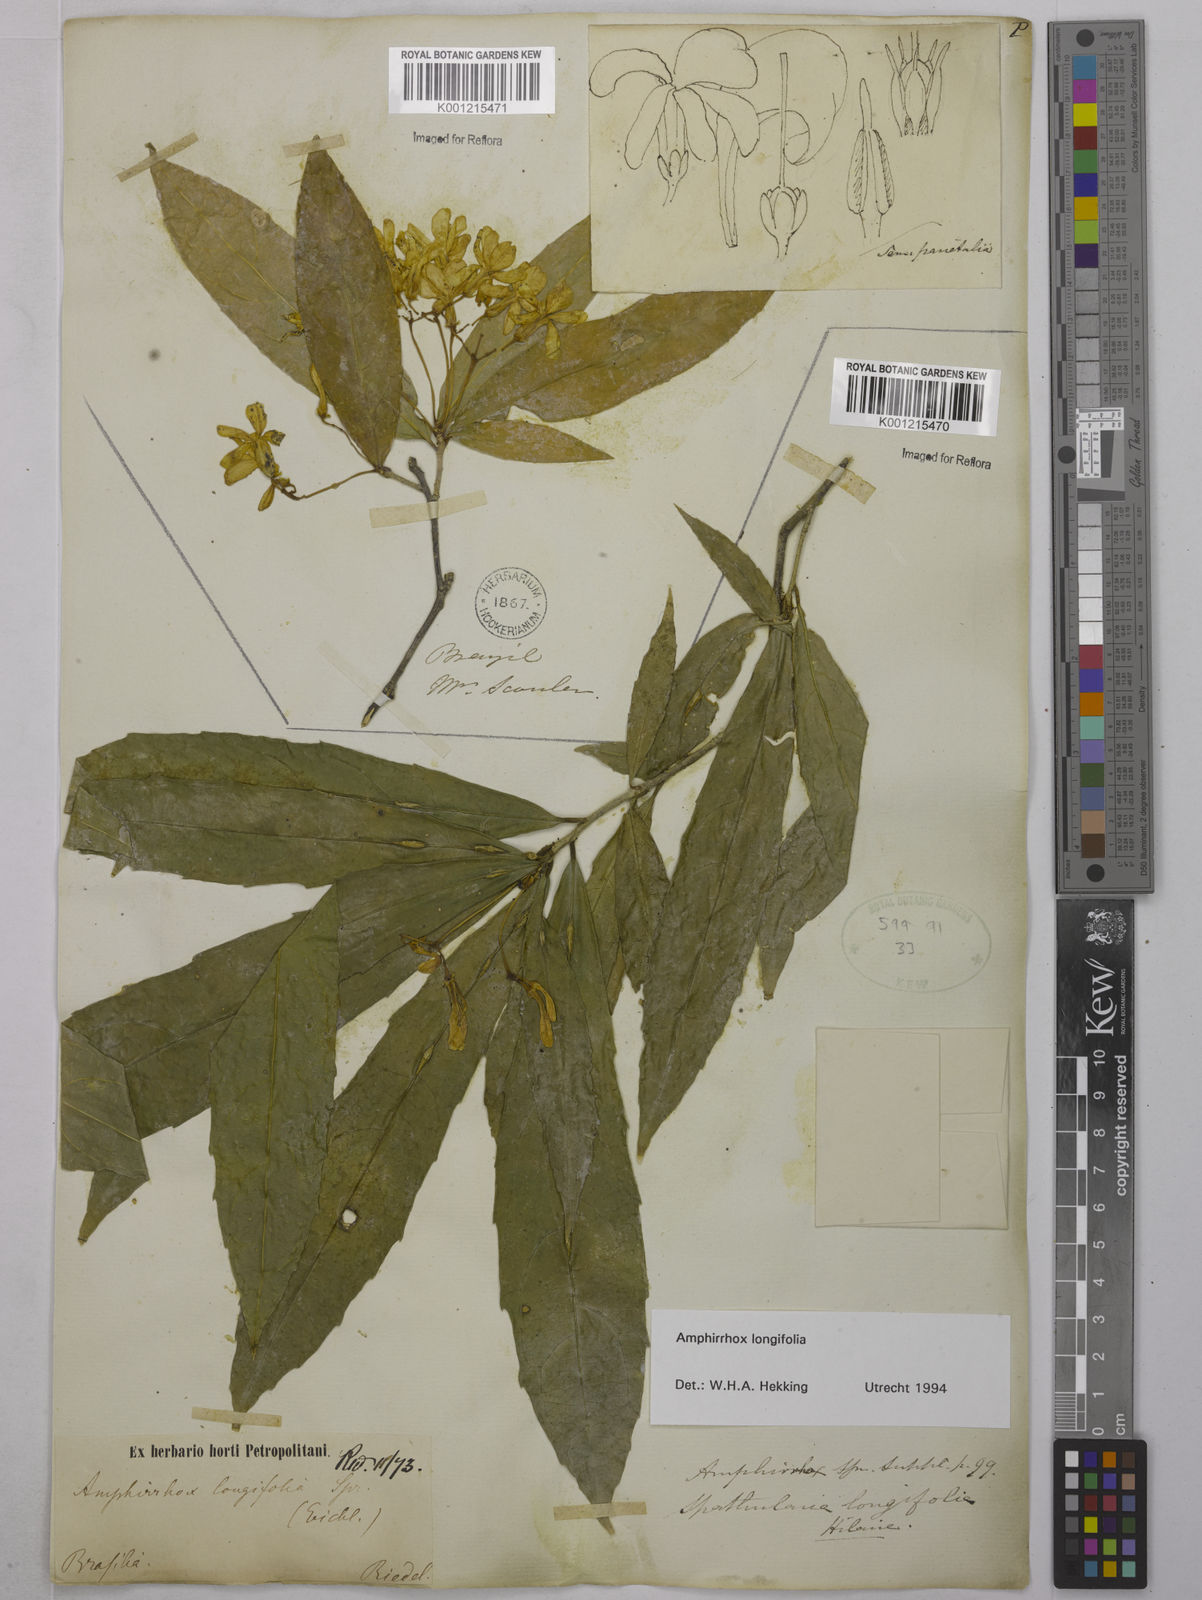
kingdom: Plantae
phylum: Tracheophyta
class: Magnoliopsida
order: Malpighiales
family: Violaceae
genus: Amphirrhox
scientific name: Amphirrhox longifolia
